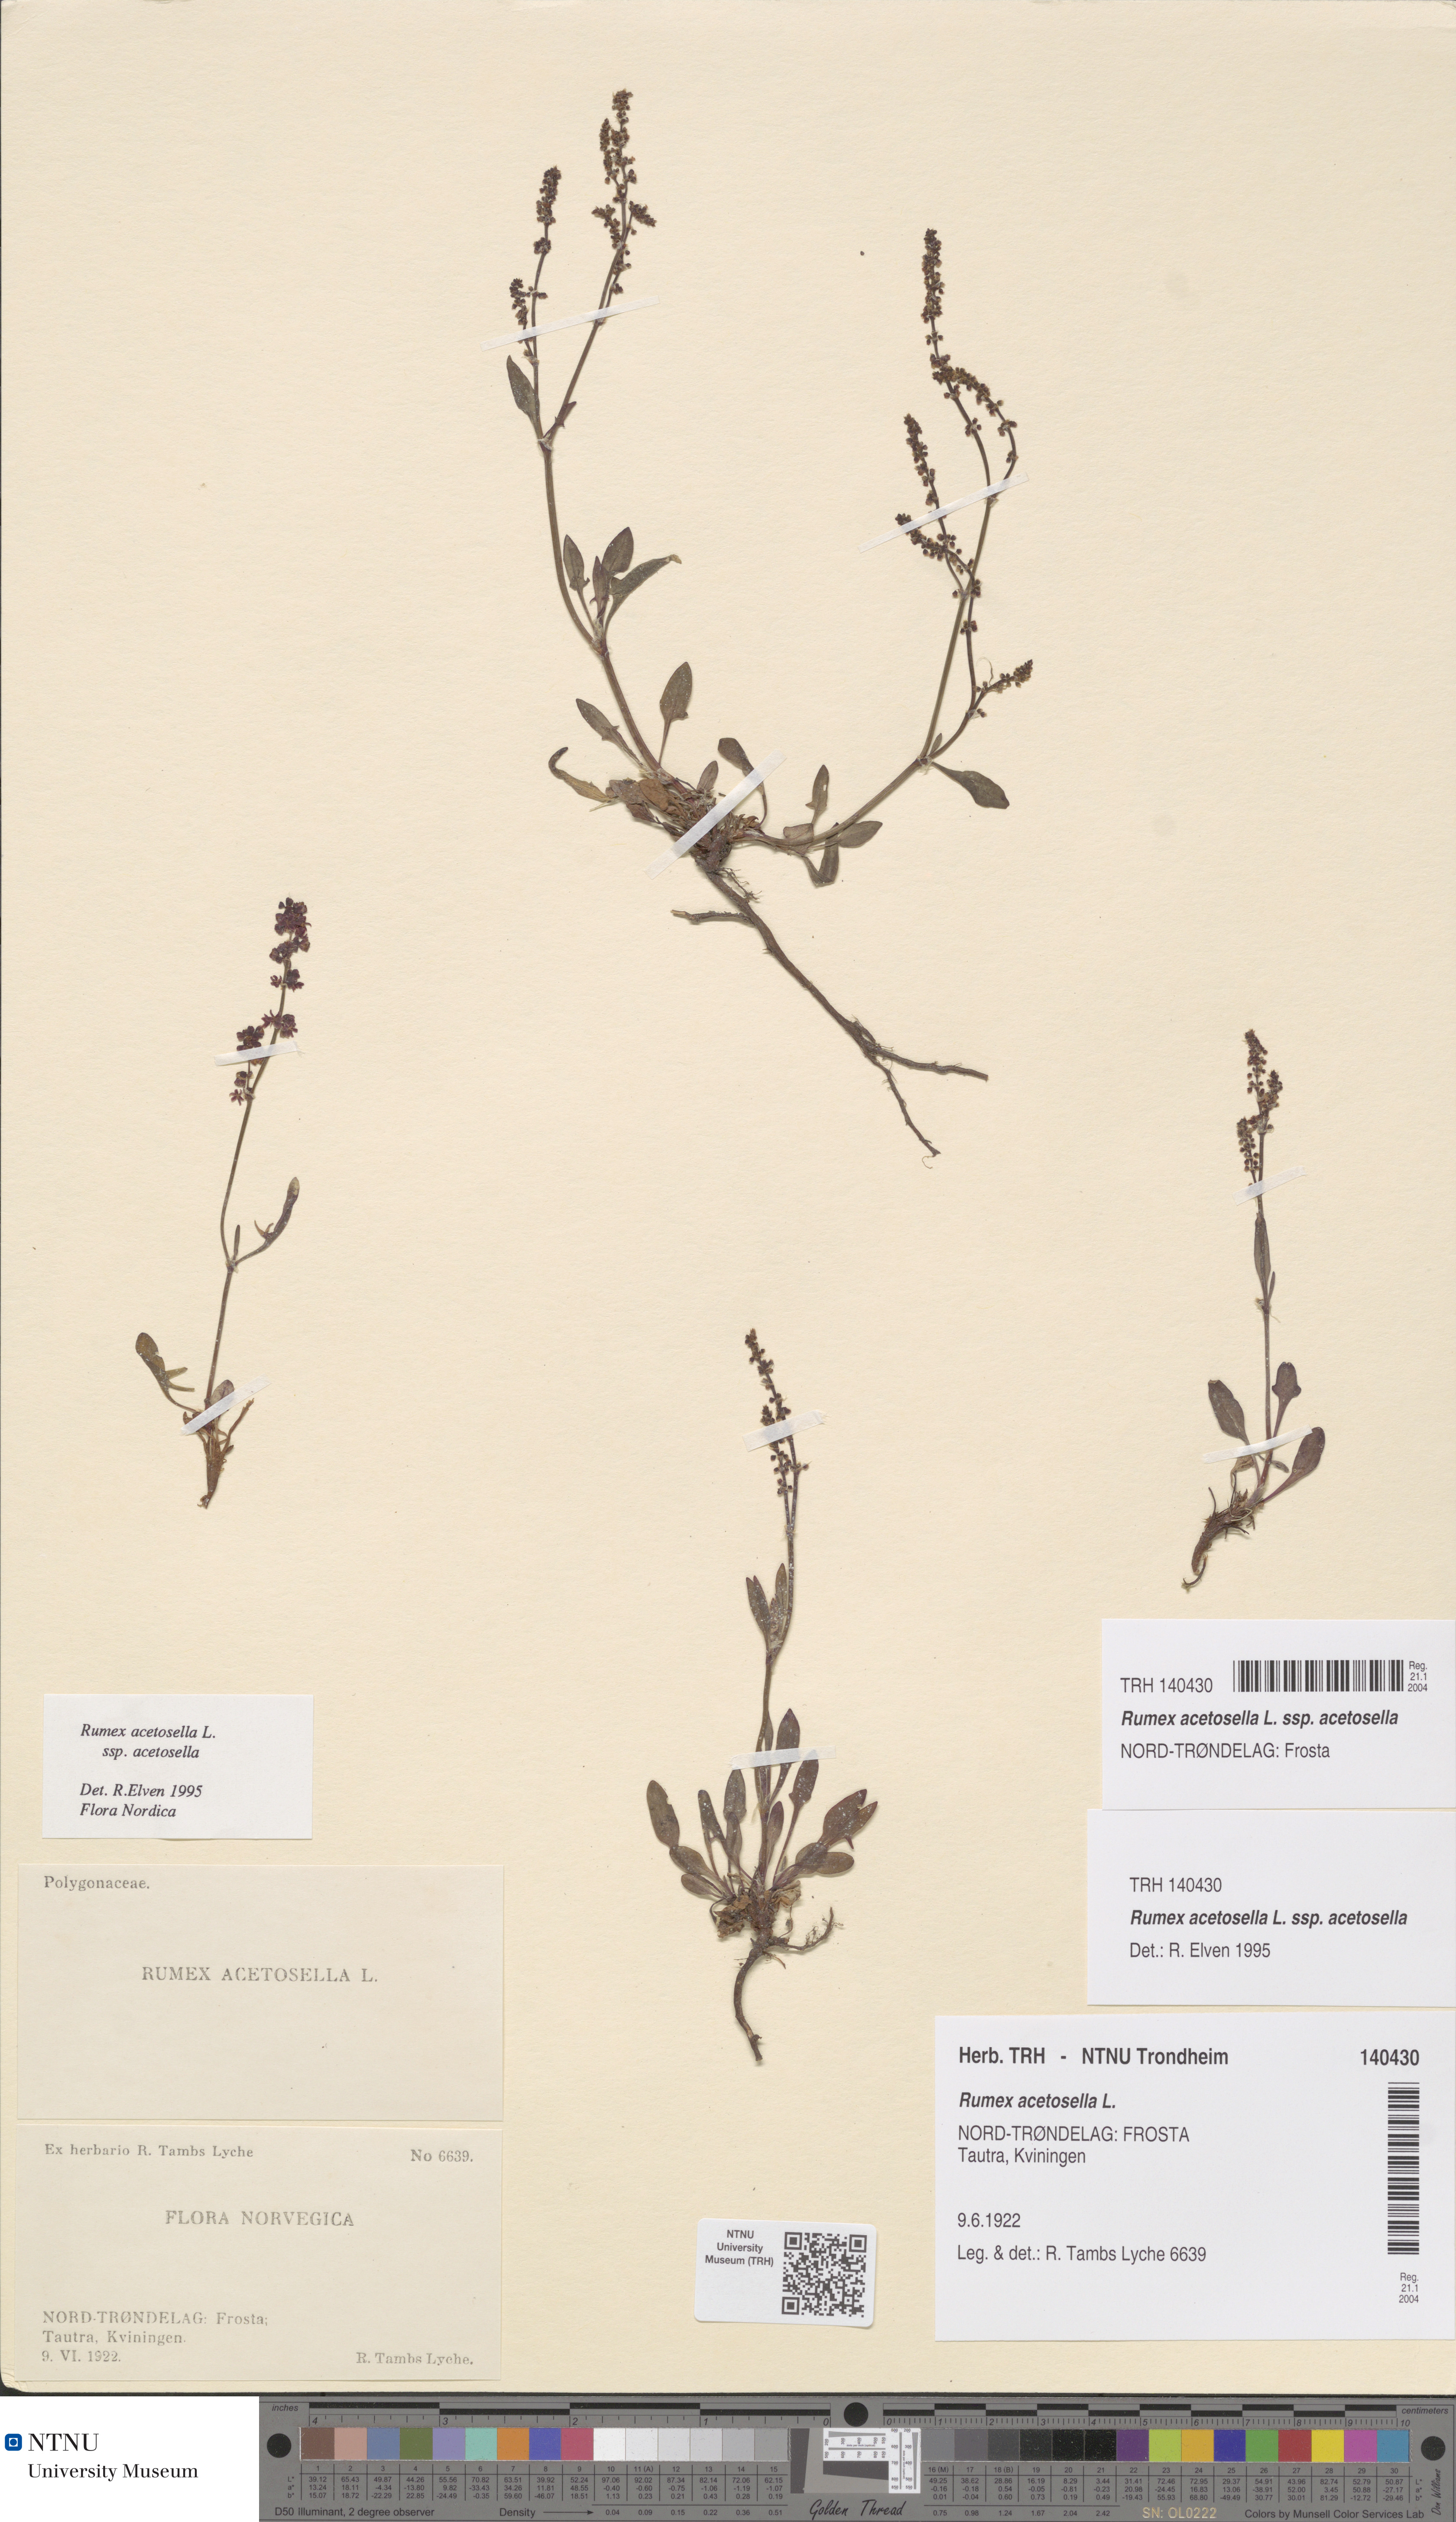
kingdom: Plantae
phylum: Tracheophyta
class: Magnoliopsida
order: Caryophyllales
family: Polygonaceae
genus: Rumex
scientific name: Rumex acetosella
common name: Common sheep sorrel
